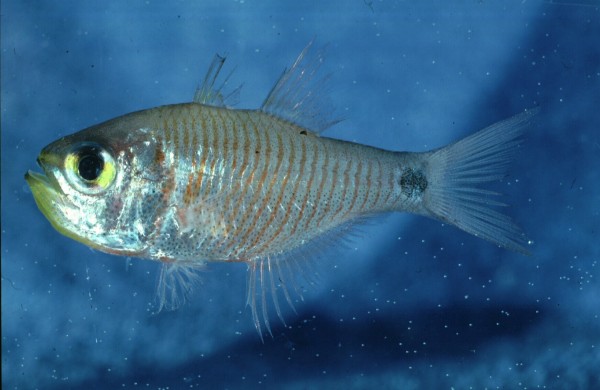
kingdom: Animalia
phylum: Chordata
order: Perciformes
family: Apogonidae
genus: Taeniamia
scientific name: Taeniamia fucata
